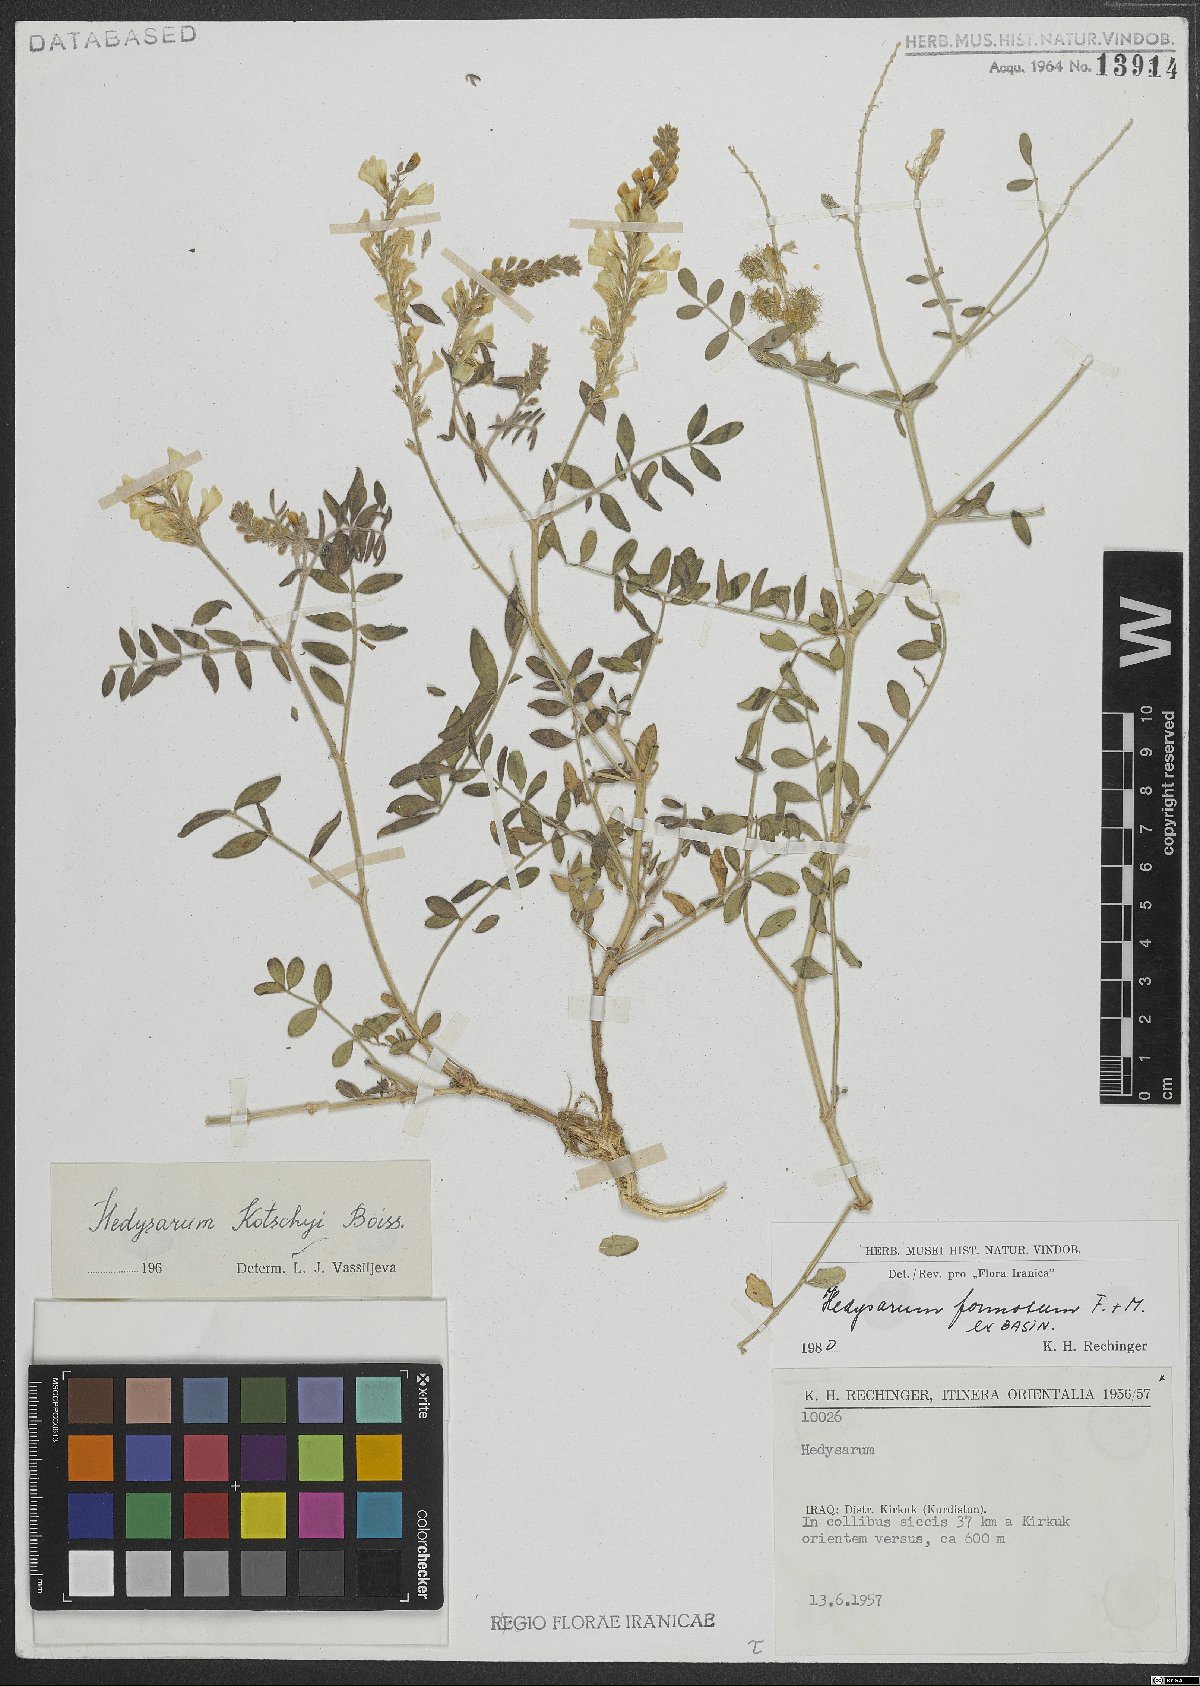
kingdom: Plantae
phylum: Tracheophyta
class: Magnoliopsida
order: Fabales
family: Fabaceae
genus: Hedysarum
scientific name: Hedysarum formosum
